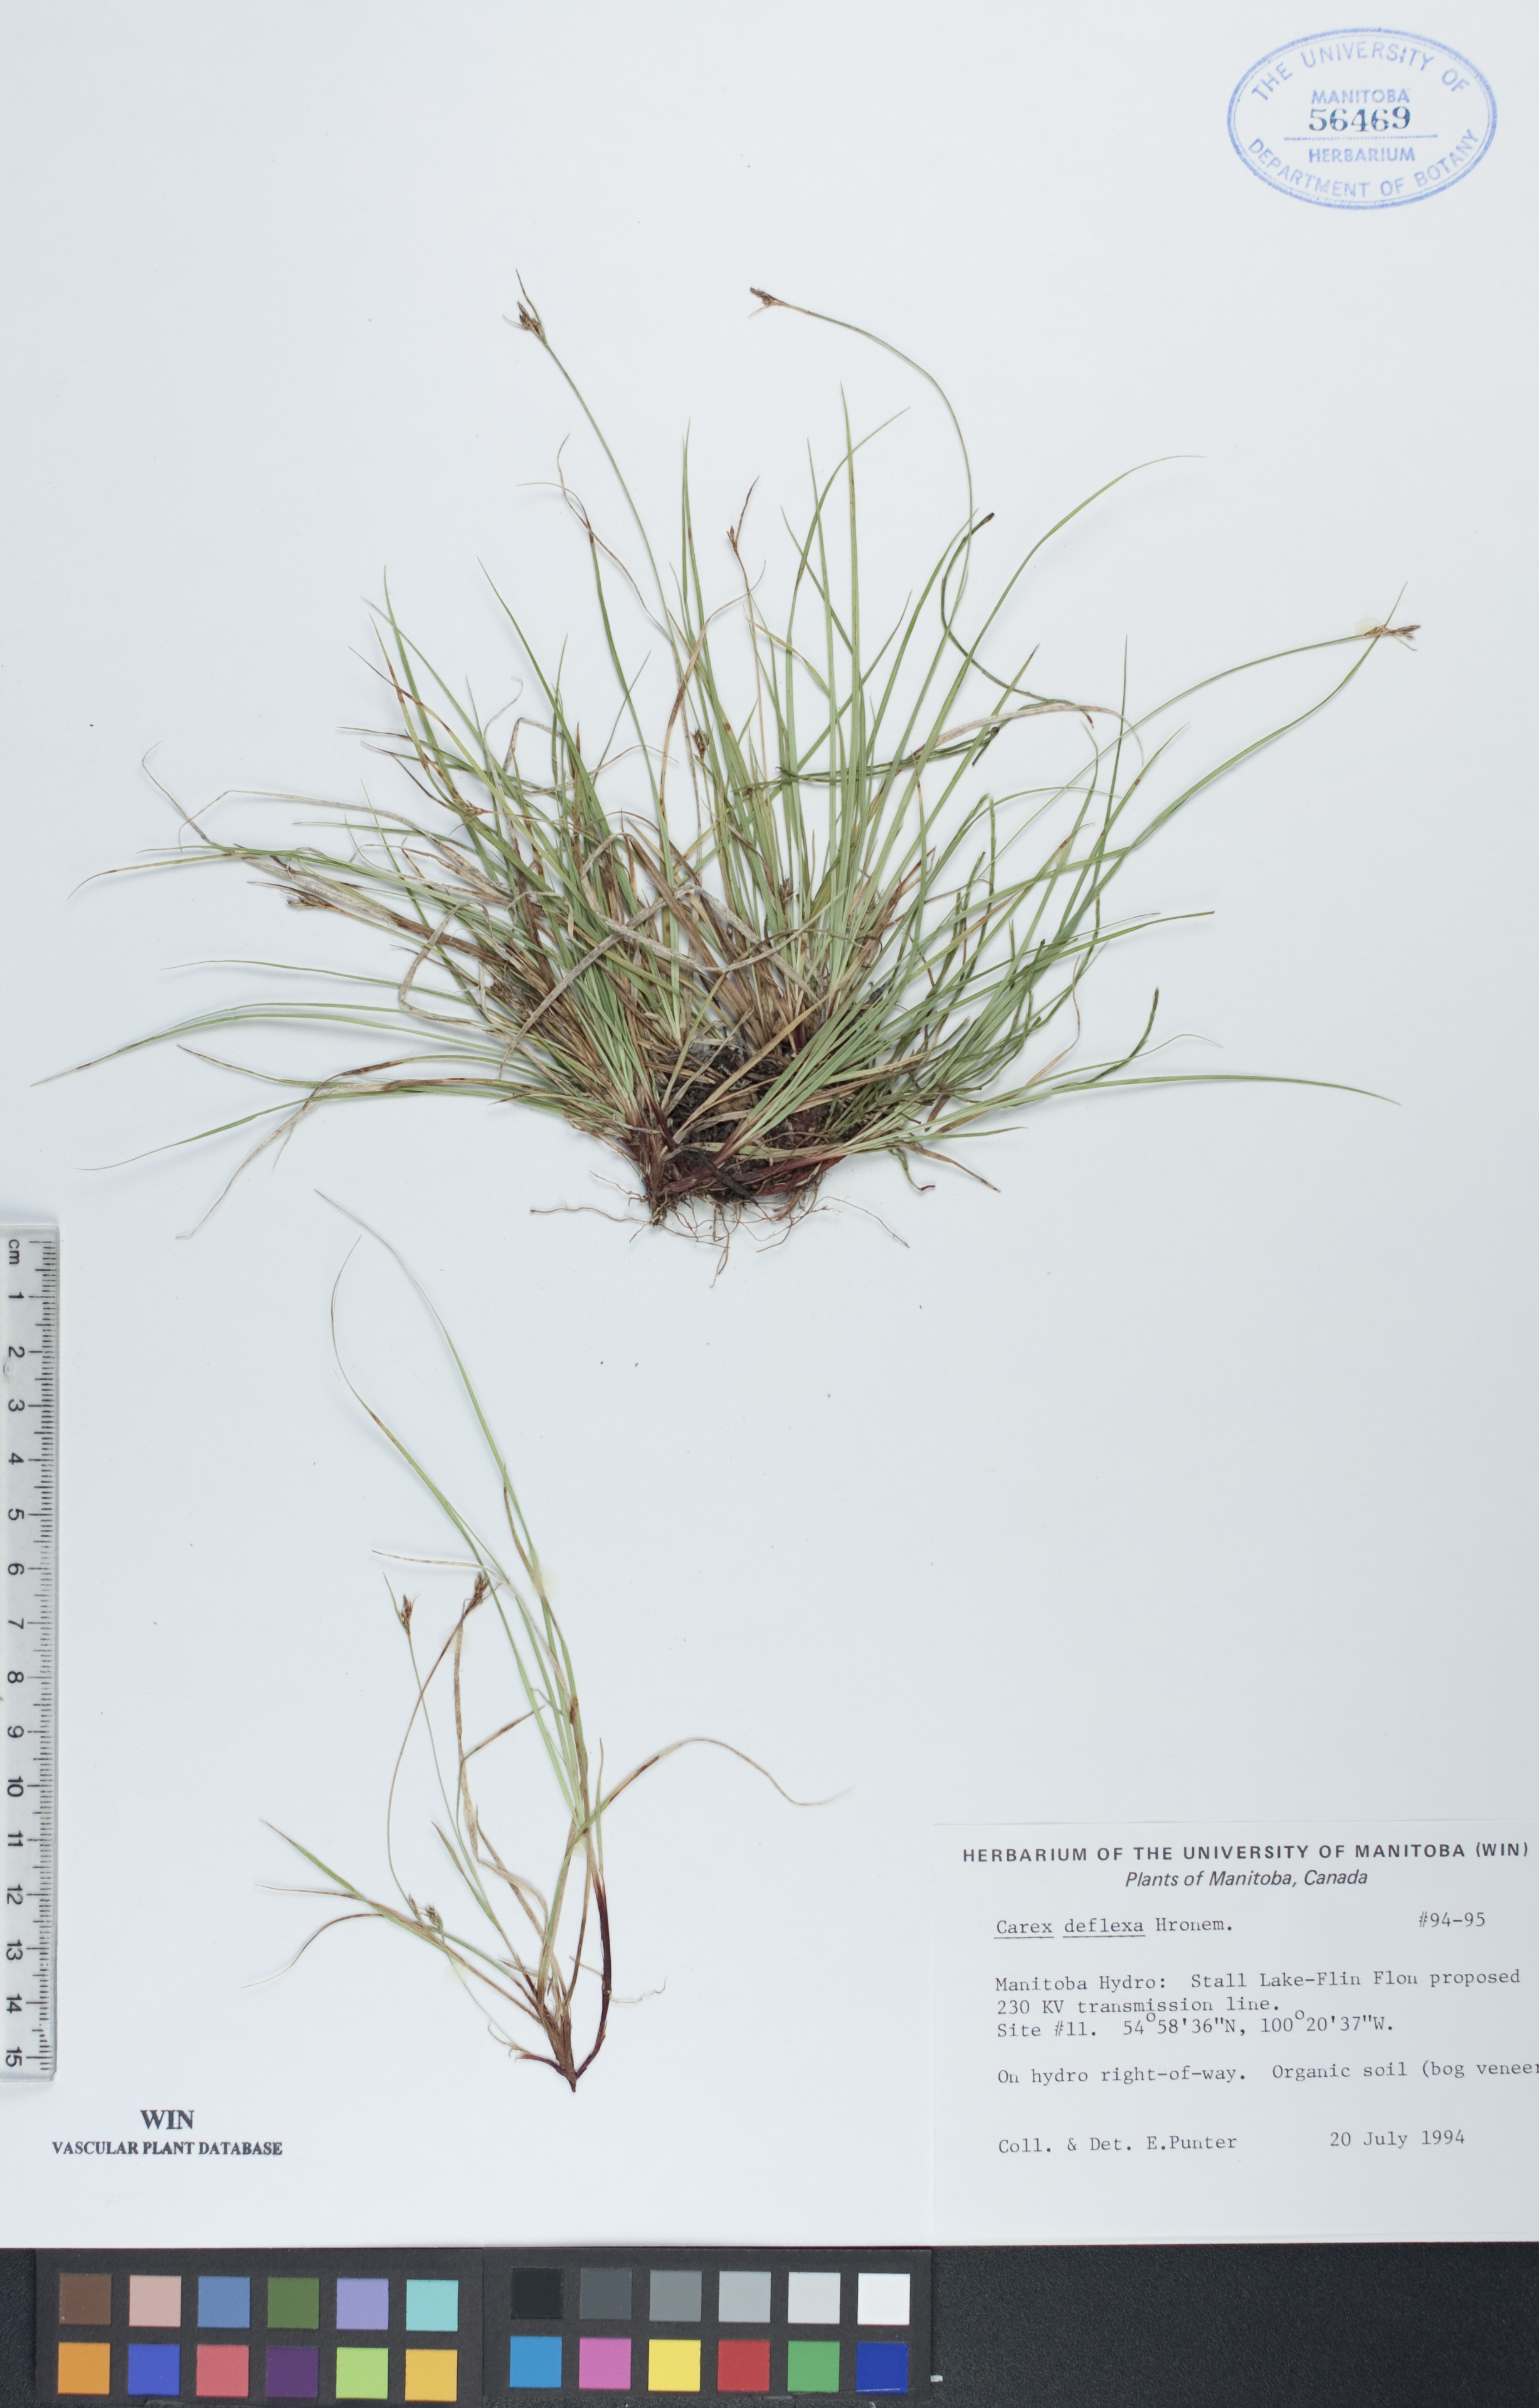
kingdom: Plantae
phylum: Tracheophyta
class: Liliopsida
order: Poales
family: Cyperaceae
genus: Carex
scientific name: Carex deflexa
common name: Bent northern sedge
